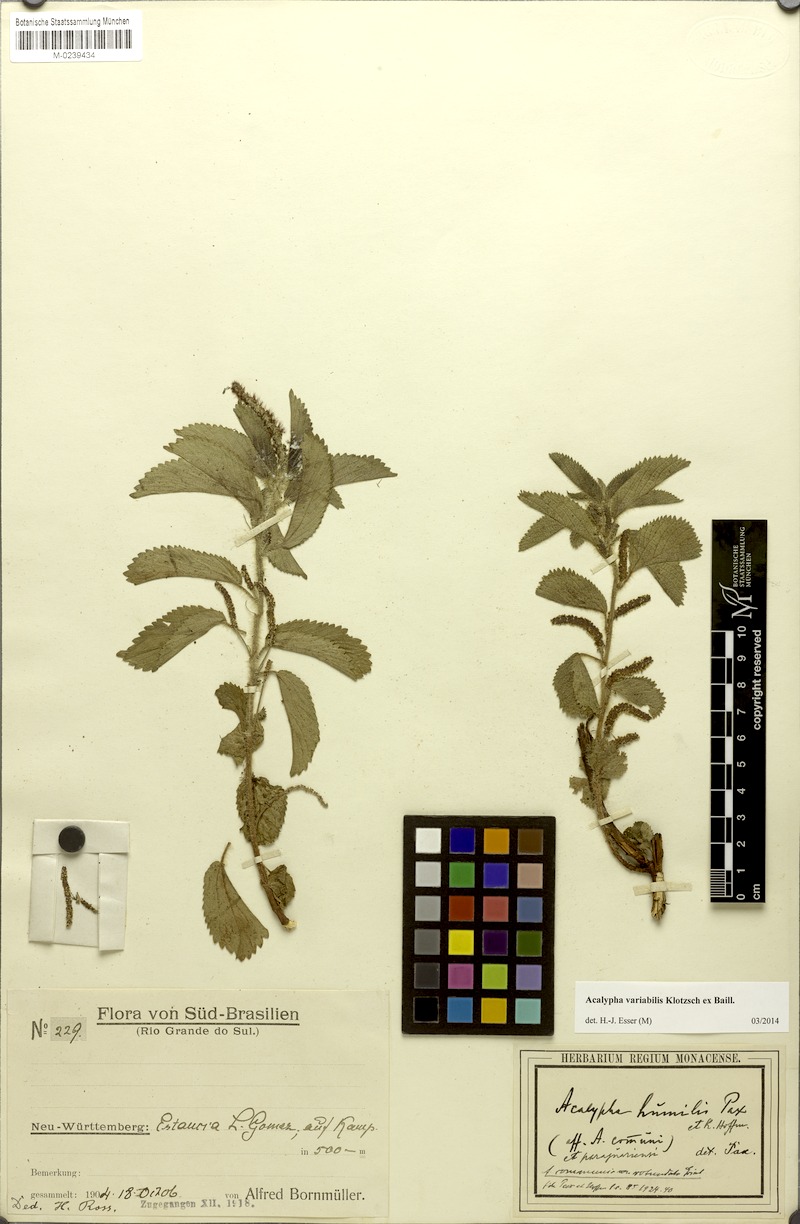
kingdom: Plantae
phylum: Tracheophyta
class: Magnoliopsida
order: Malpighiales
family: Euphorbiaceae
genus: Acalypha
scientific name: Acalypha variabilis
